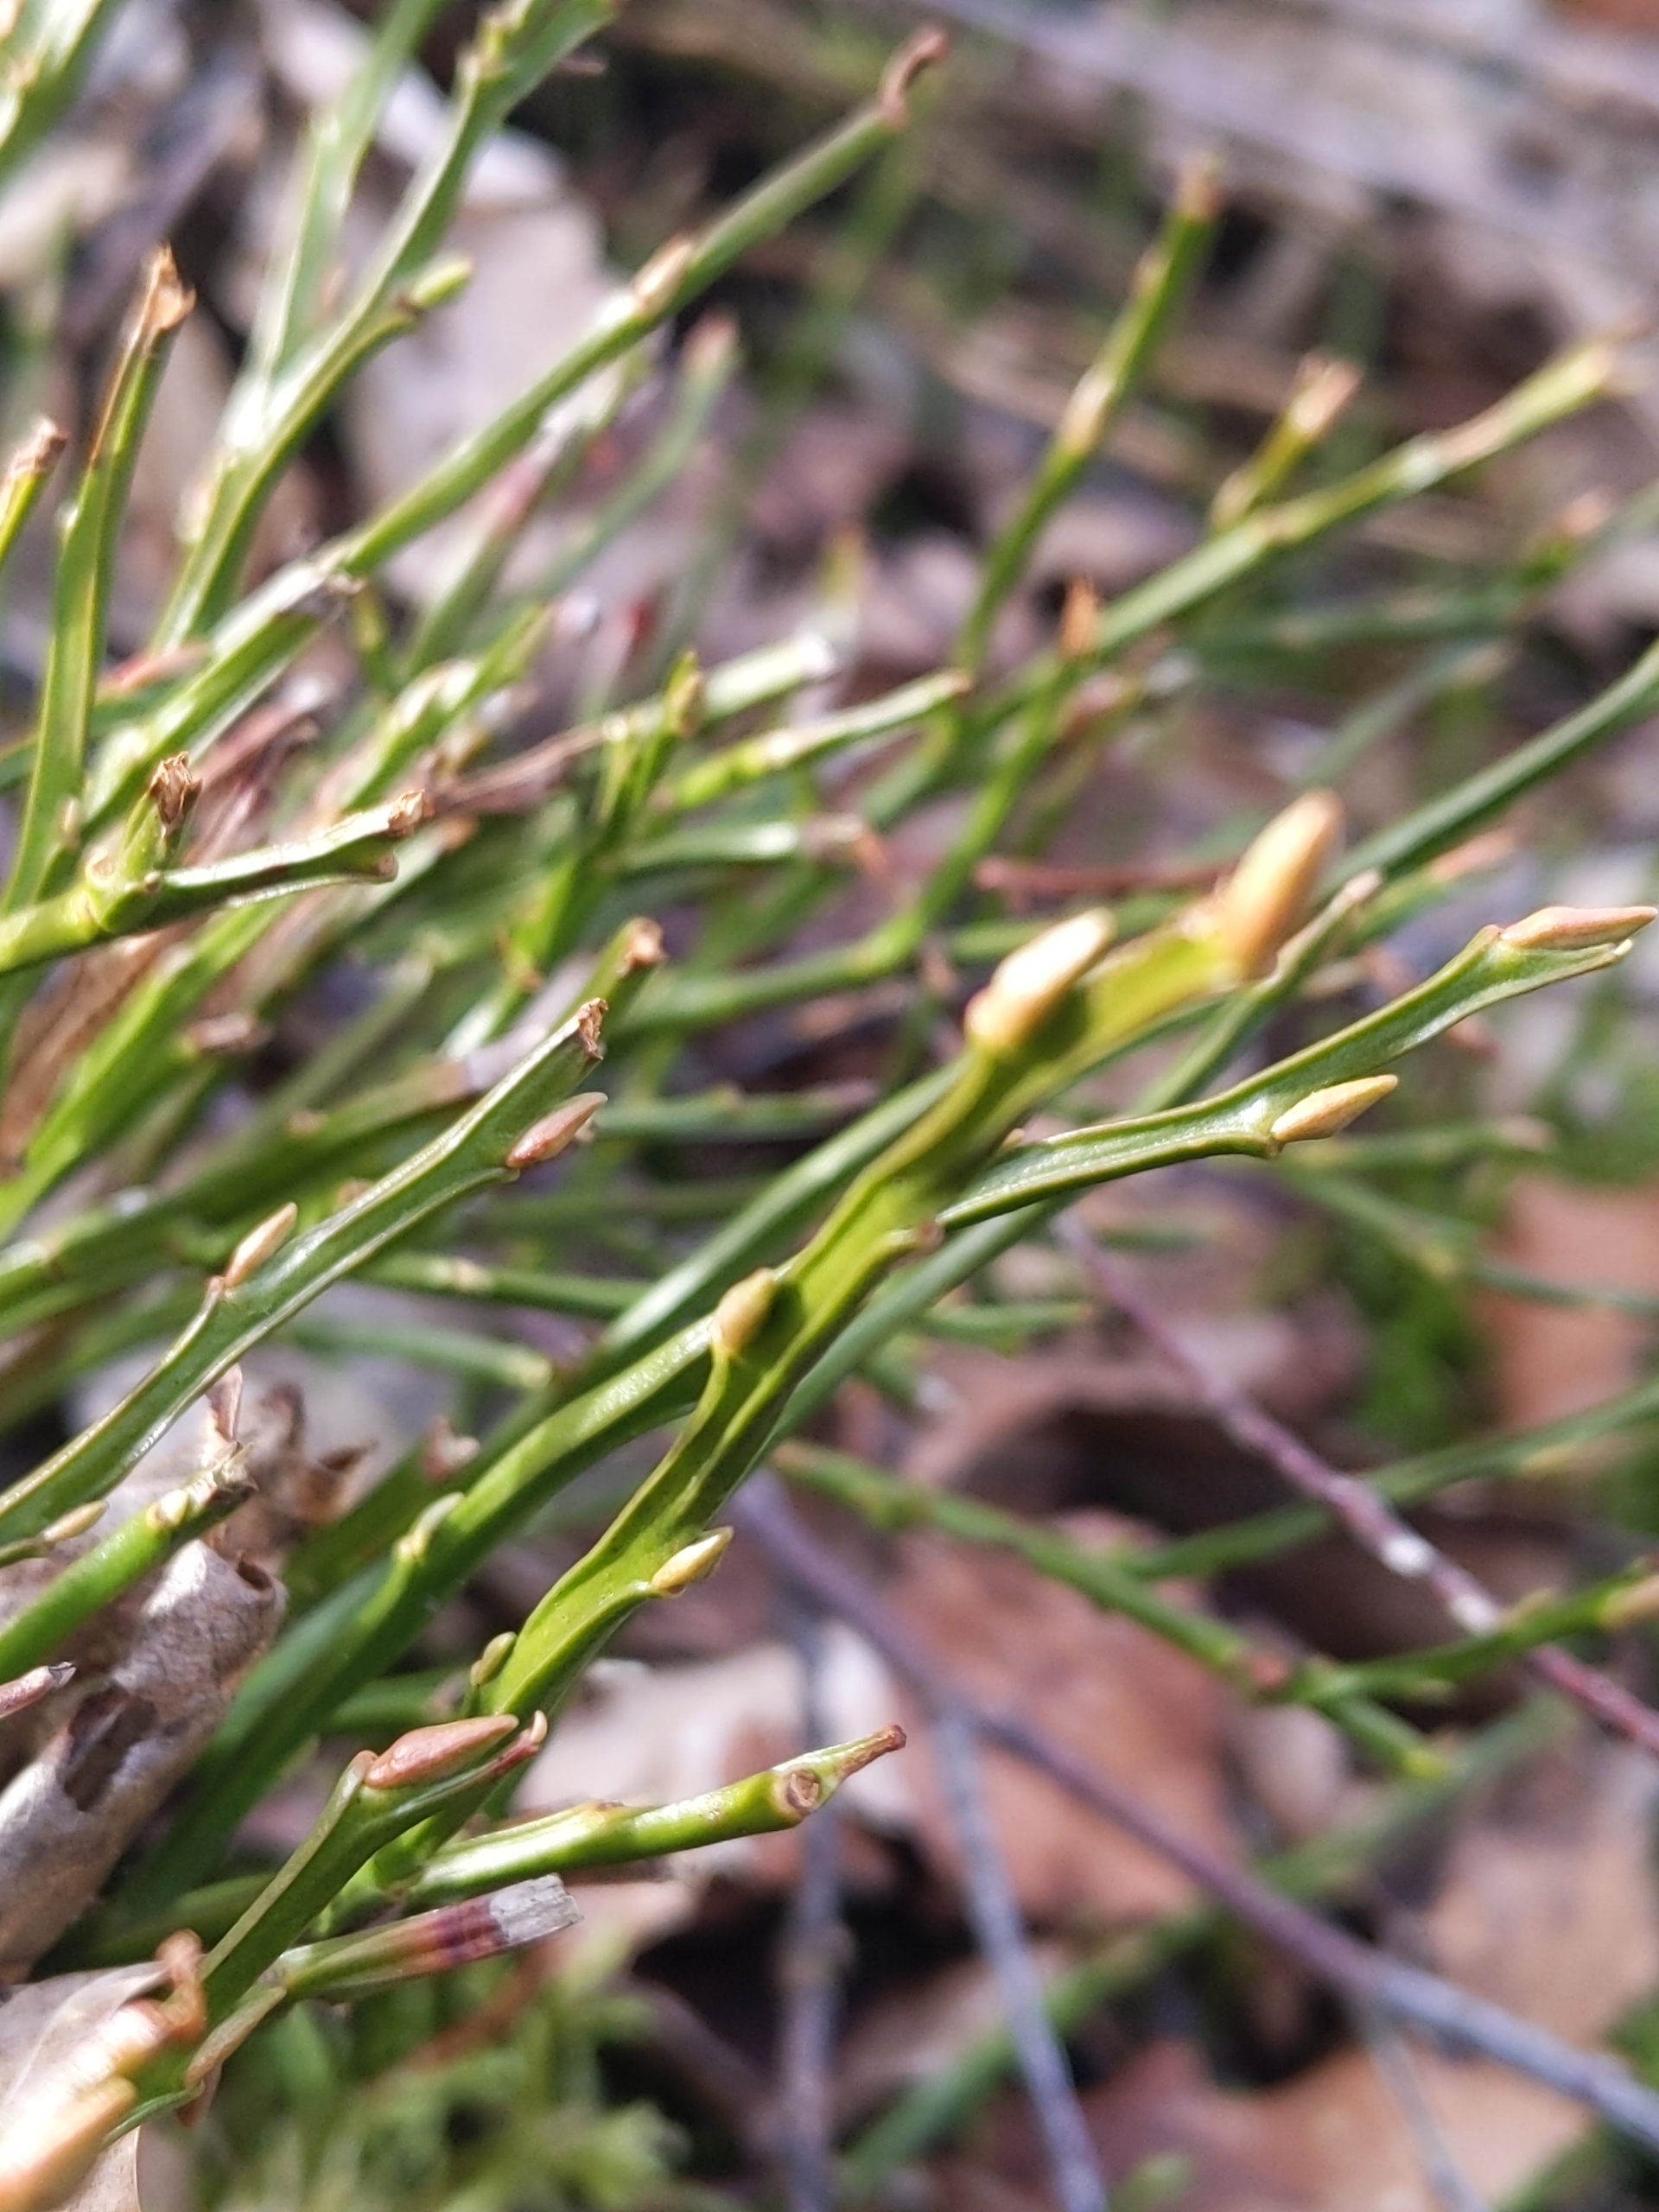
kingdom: Plantae
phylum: Tracheophyta
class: Magnoliopsida
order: Ericales
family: Ericaceae
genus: Vaccinium
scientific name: Vaccinium myrtillus
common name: Blåbær
